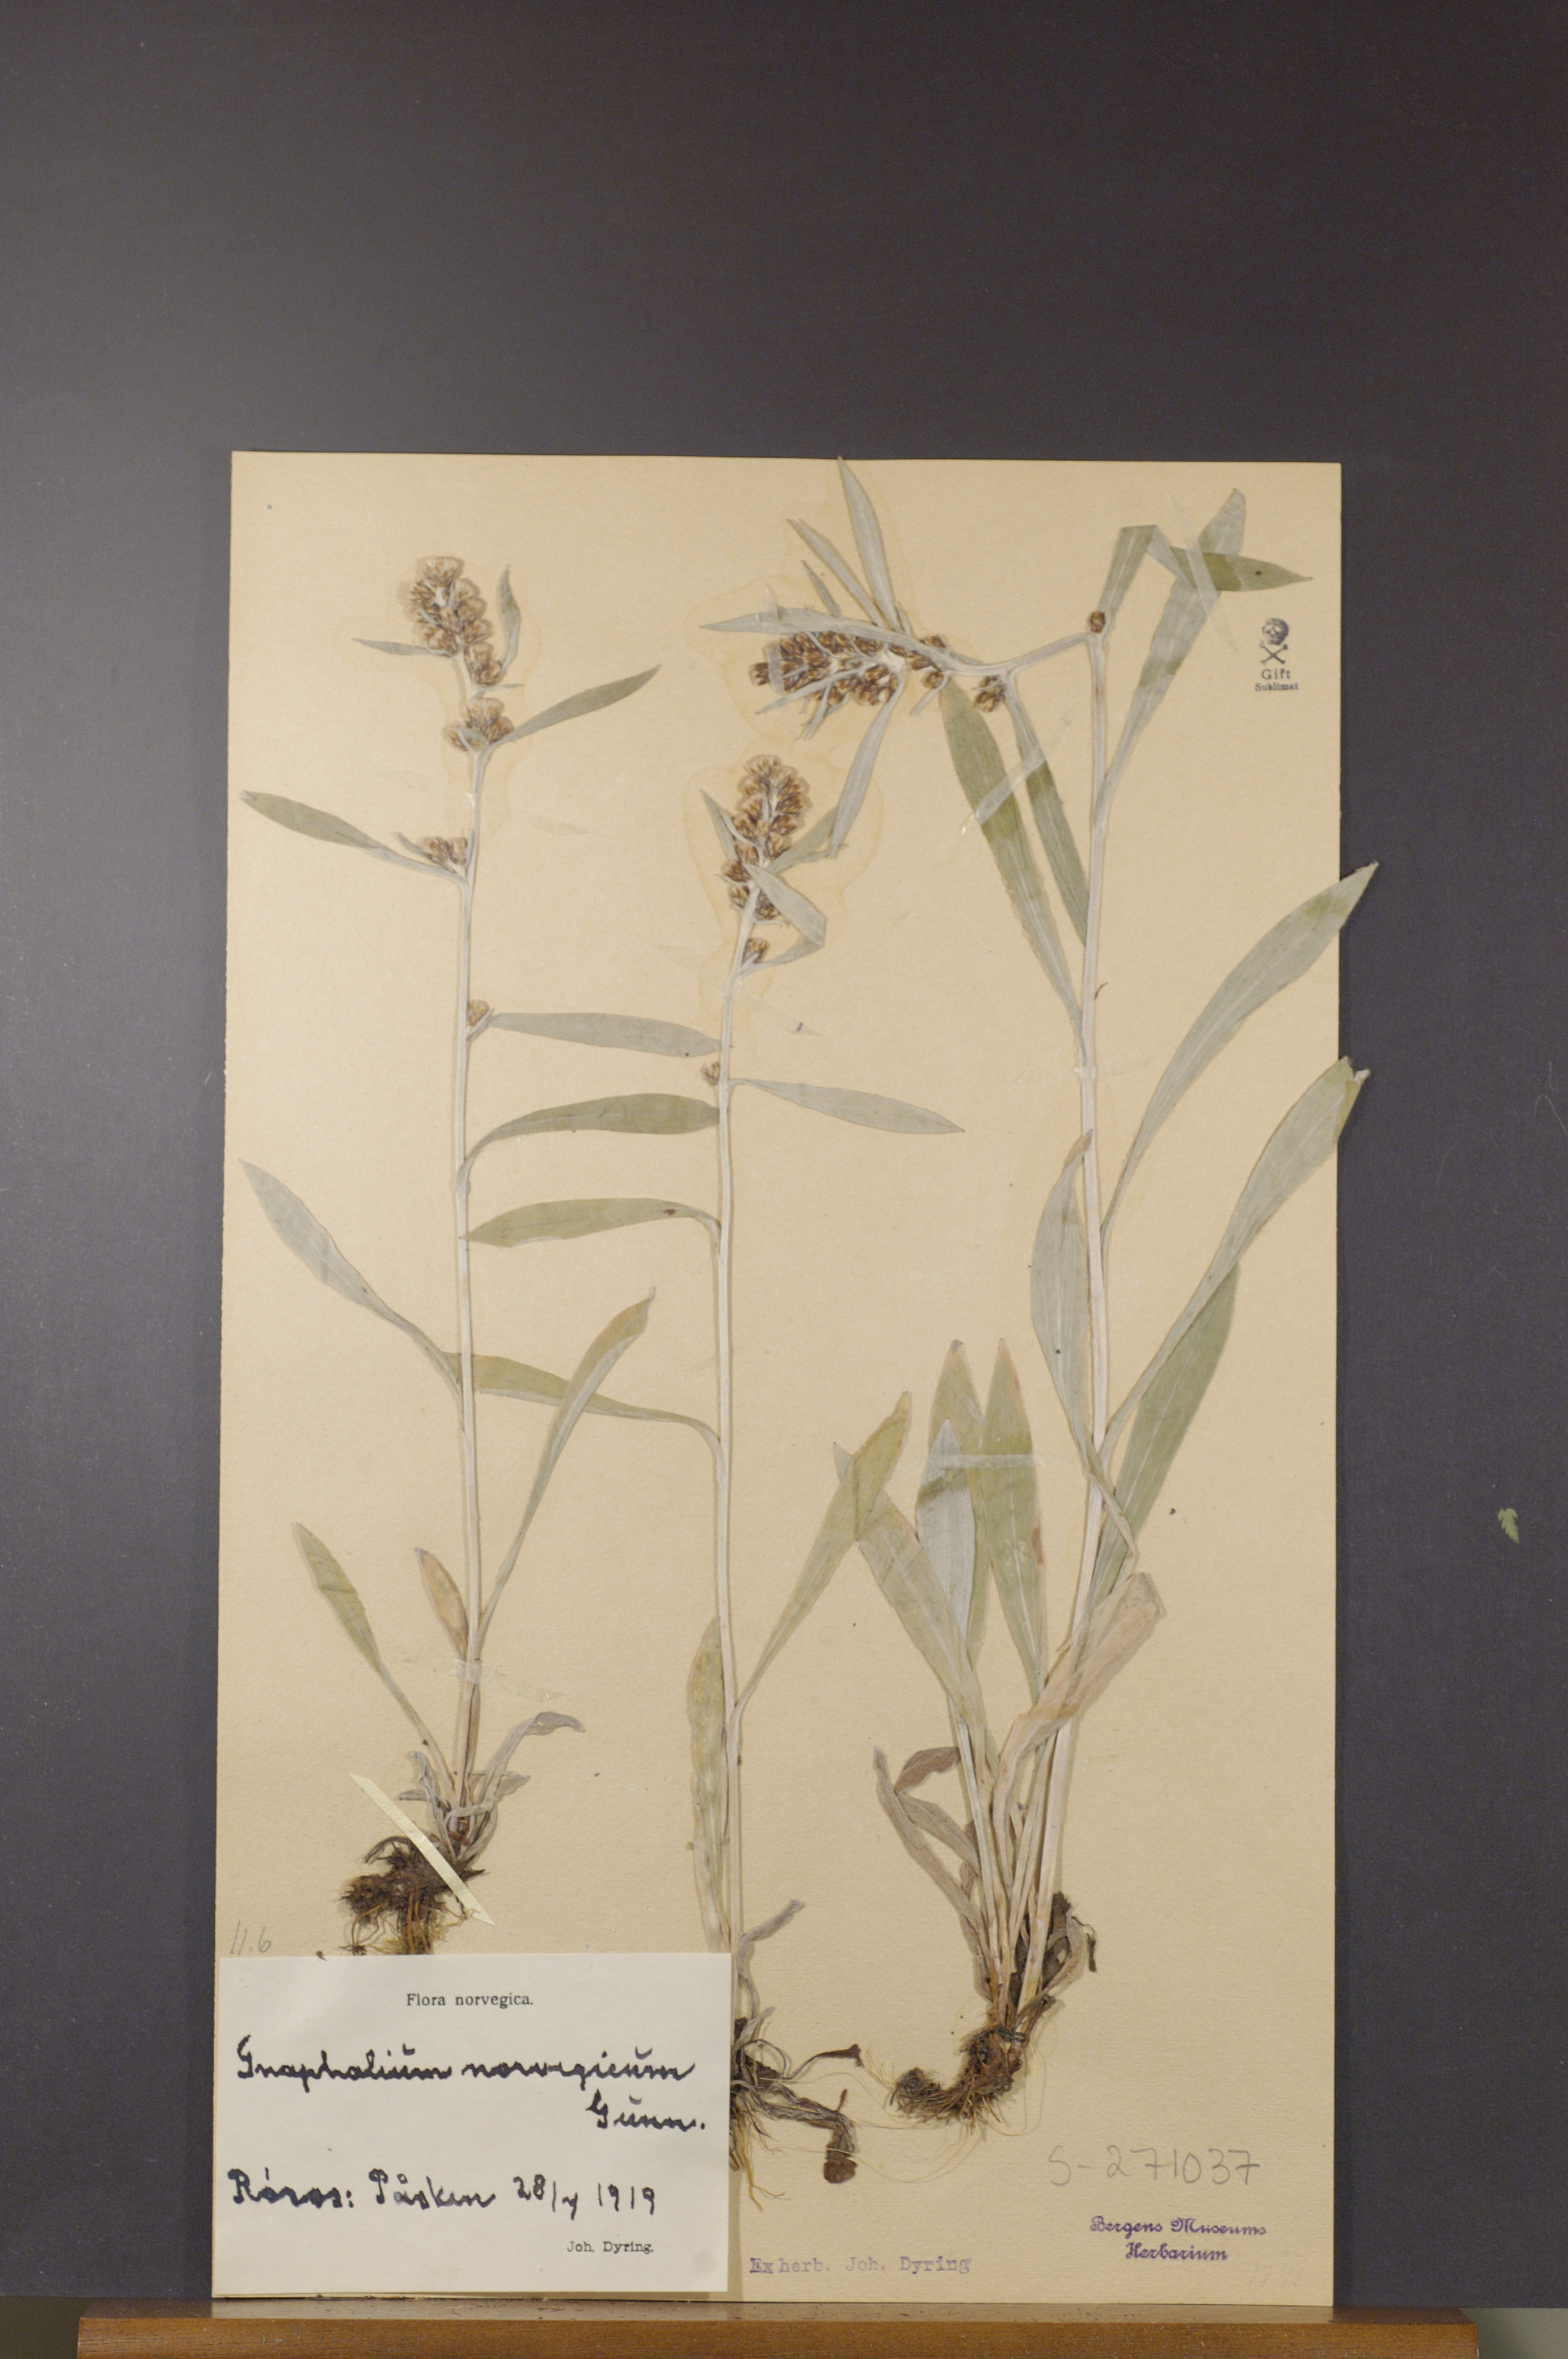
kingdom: Plantae
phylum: Tracheophyta
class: Magnoliopsida
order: Asterales
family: Asteraceae
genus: Omalotheca
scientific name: Omalotheca norvegica
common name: Norwegian arctic-cudweed
